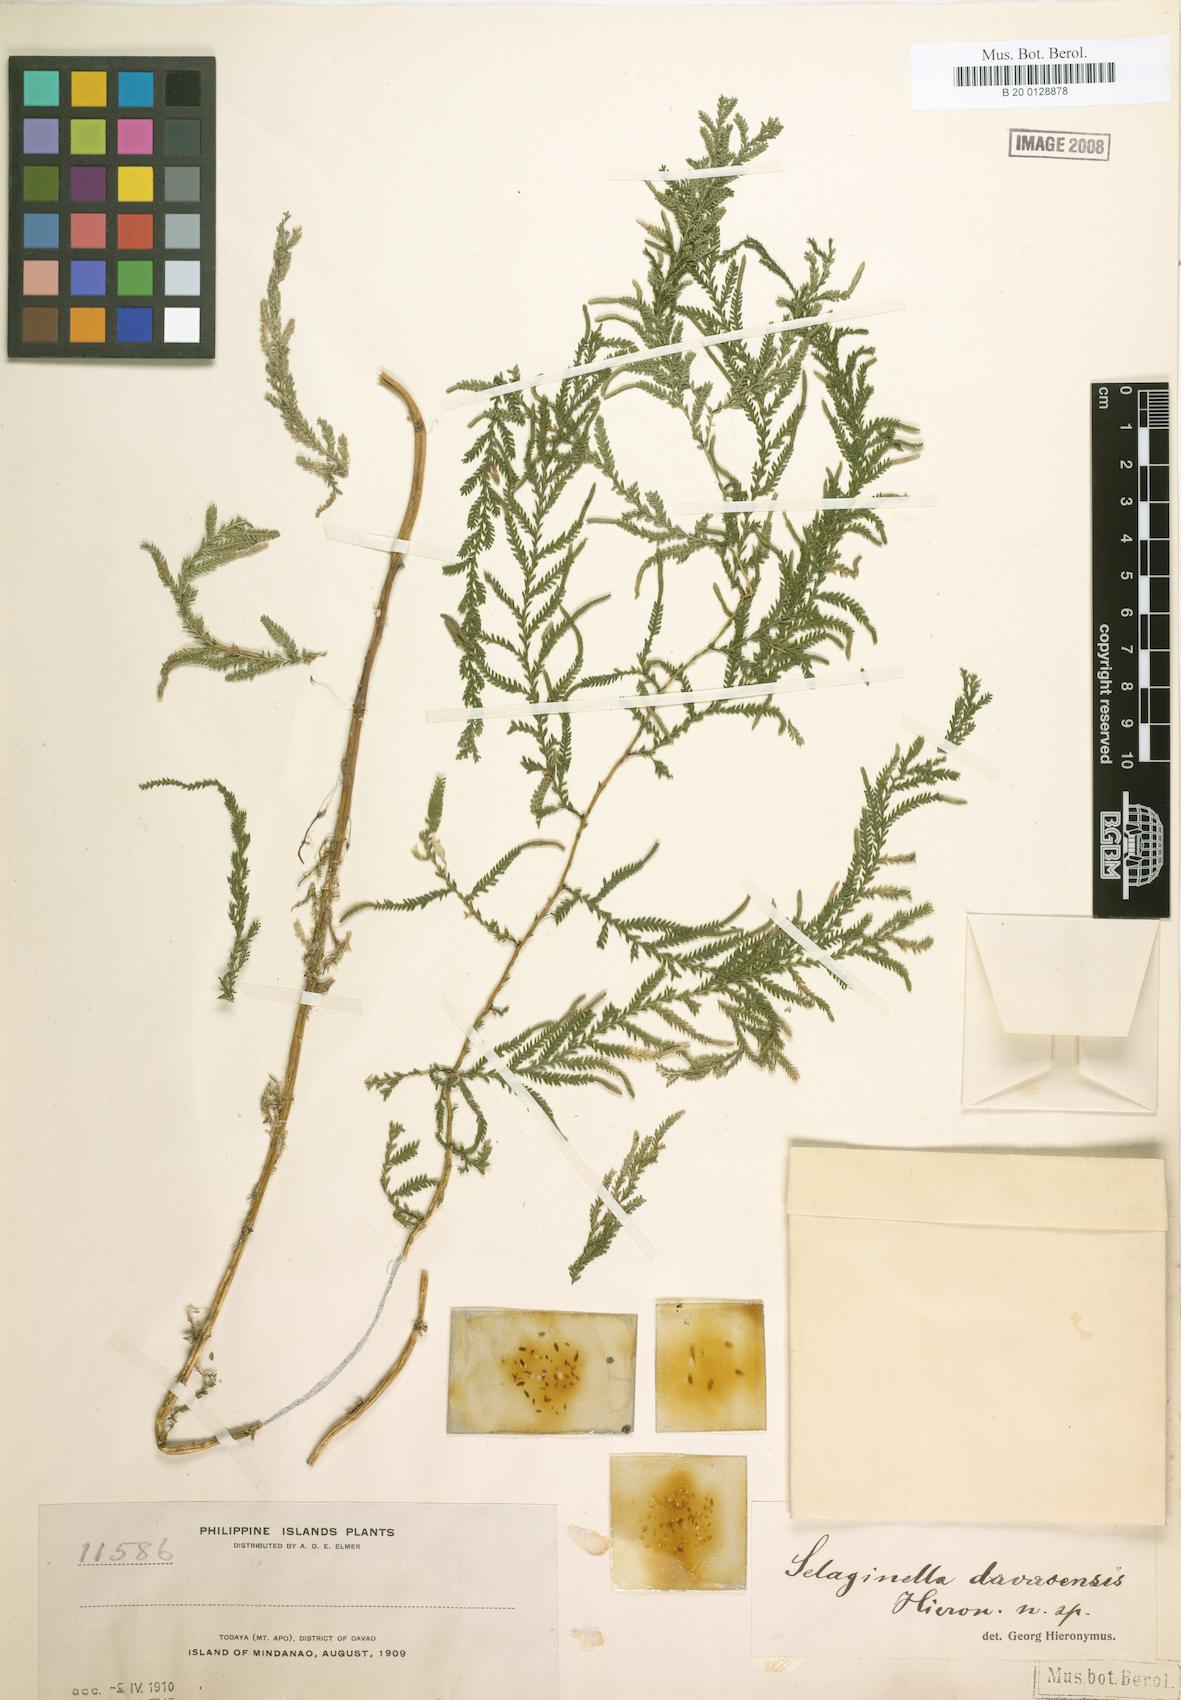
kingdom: Plantae
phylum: Tracheophyta
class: Lycopodiopsida
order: Selaginellales
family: Selaginellaceae
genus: Selaginella
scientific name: Selaginella delicatula
